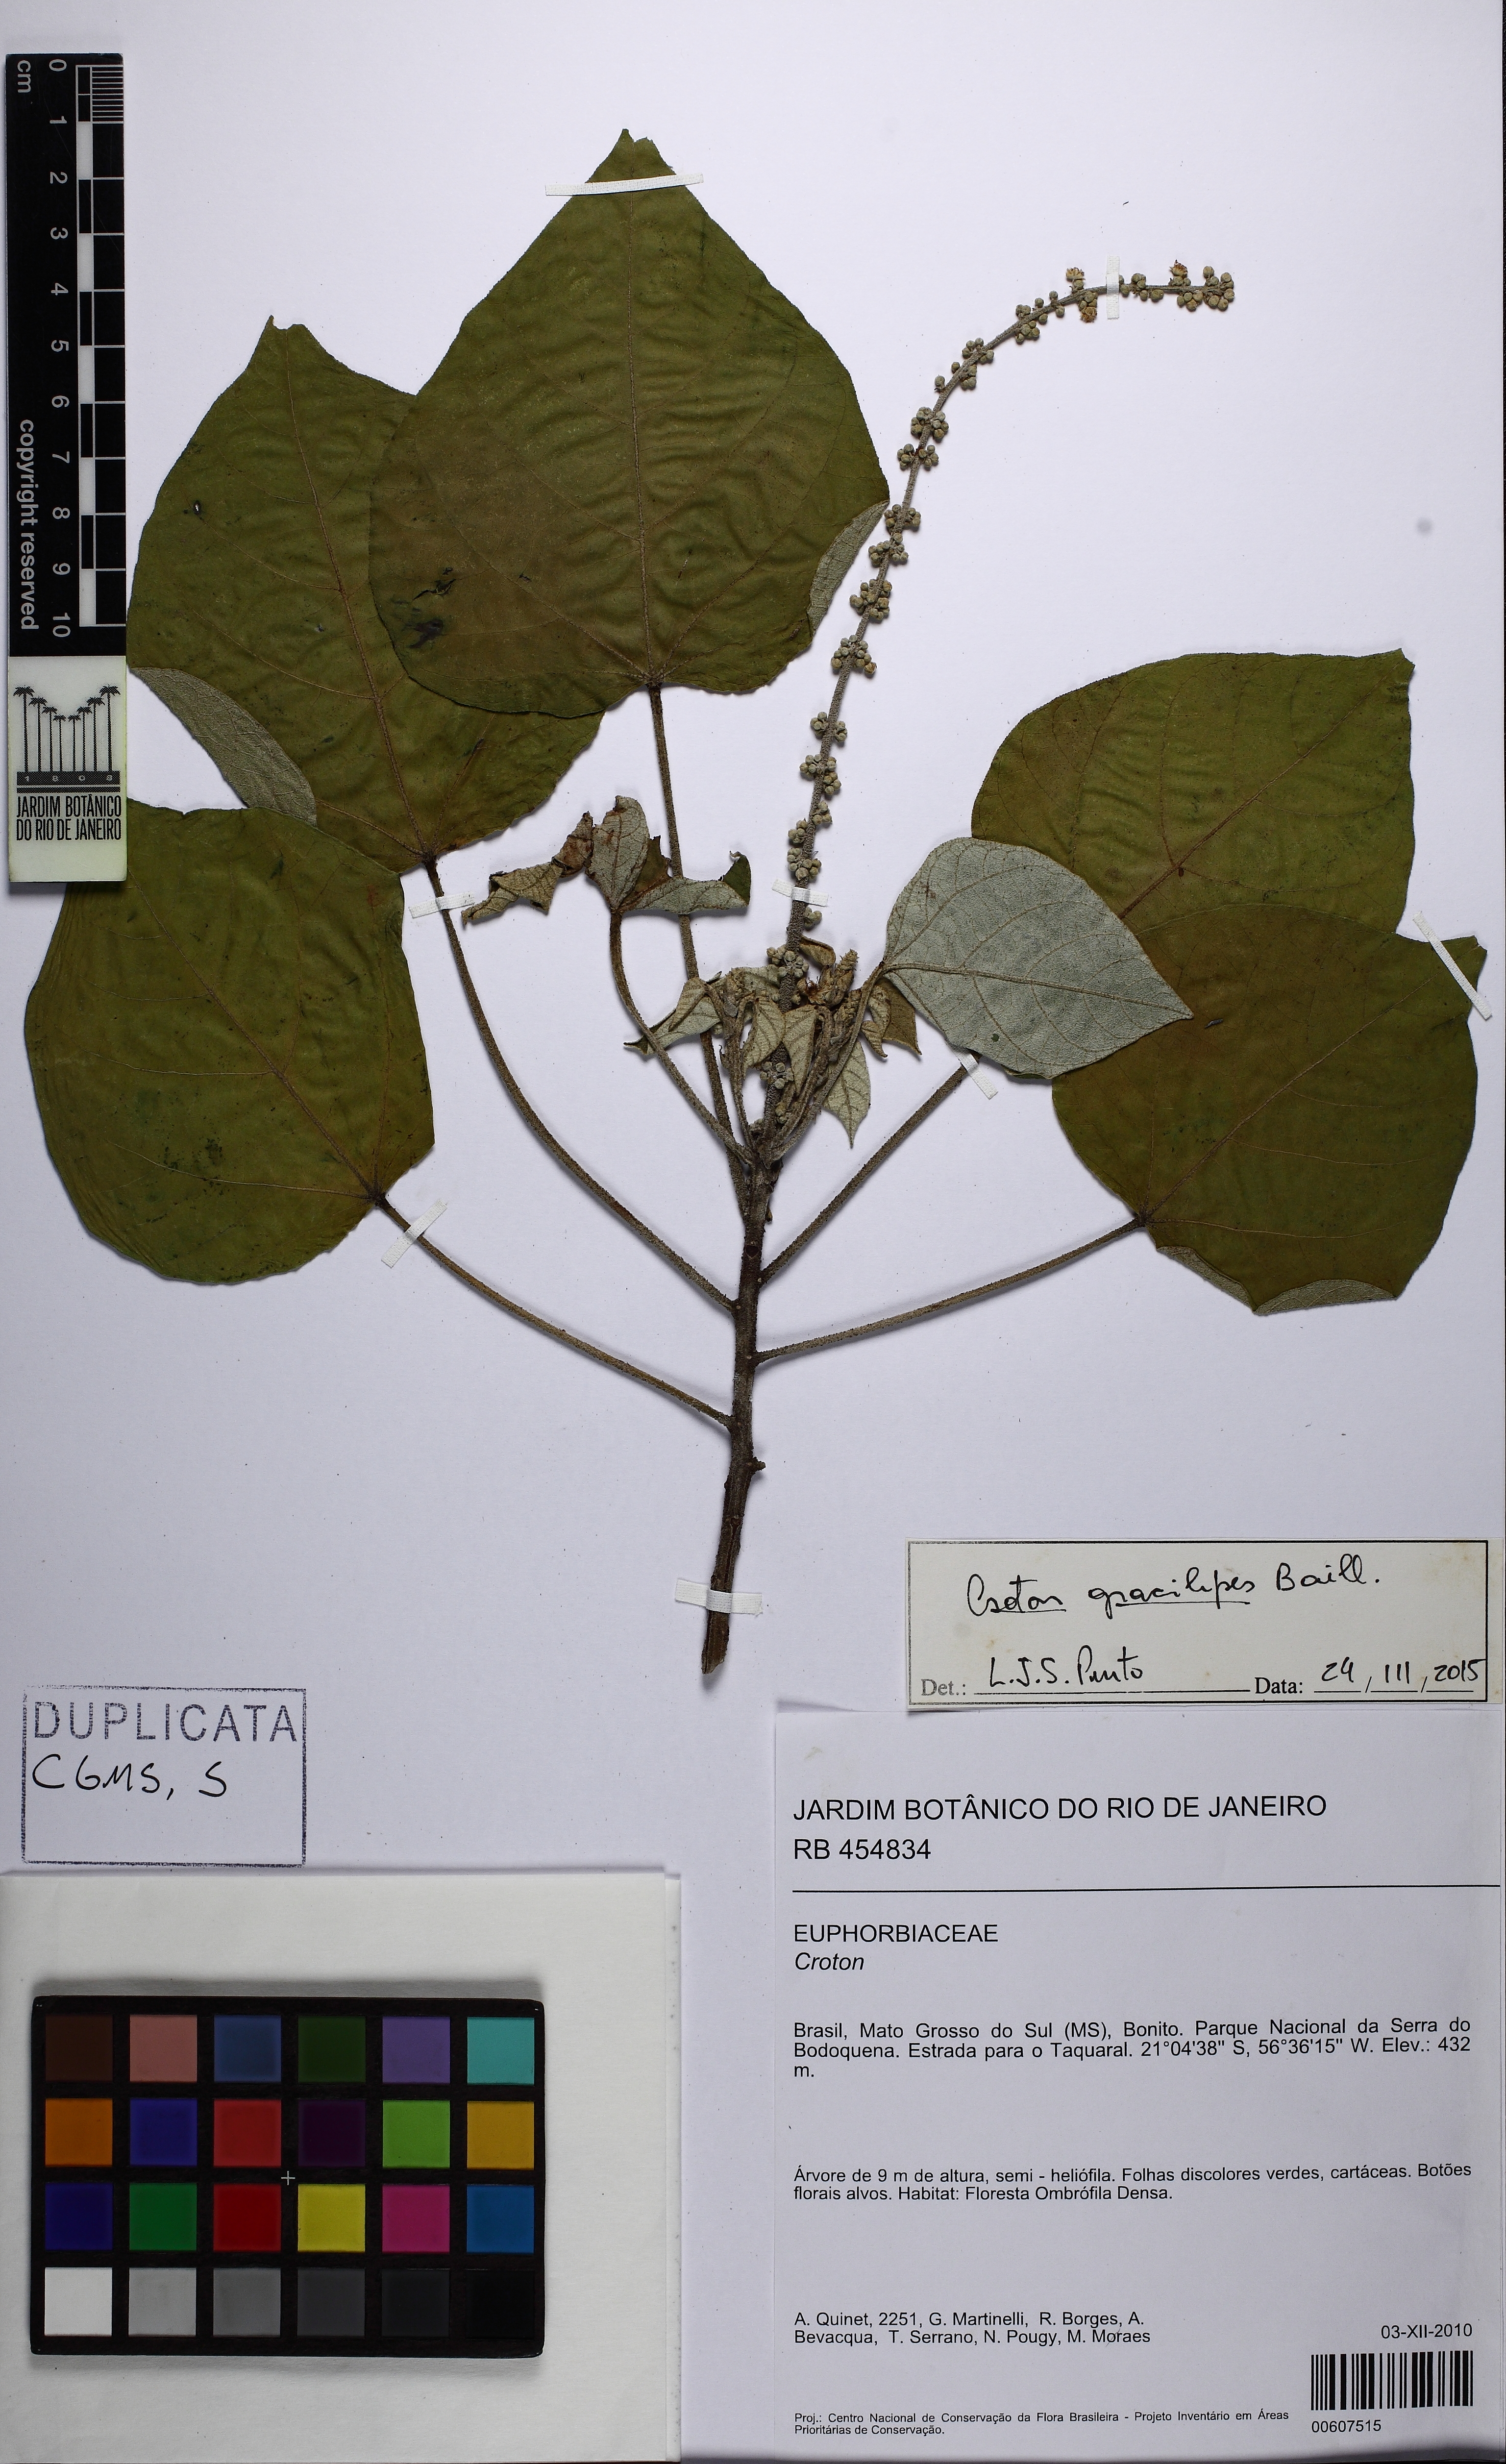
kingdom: Plantae
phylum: Tracheophyta
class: Magnoliopsida
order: Malpighiales
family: Euphorbiaceae
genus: Croton
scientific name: Croton gracilipes
